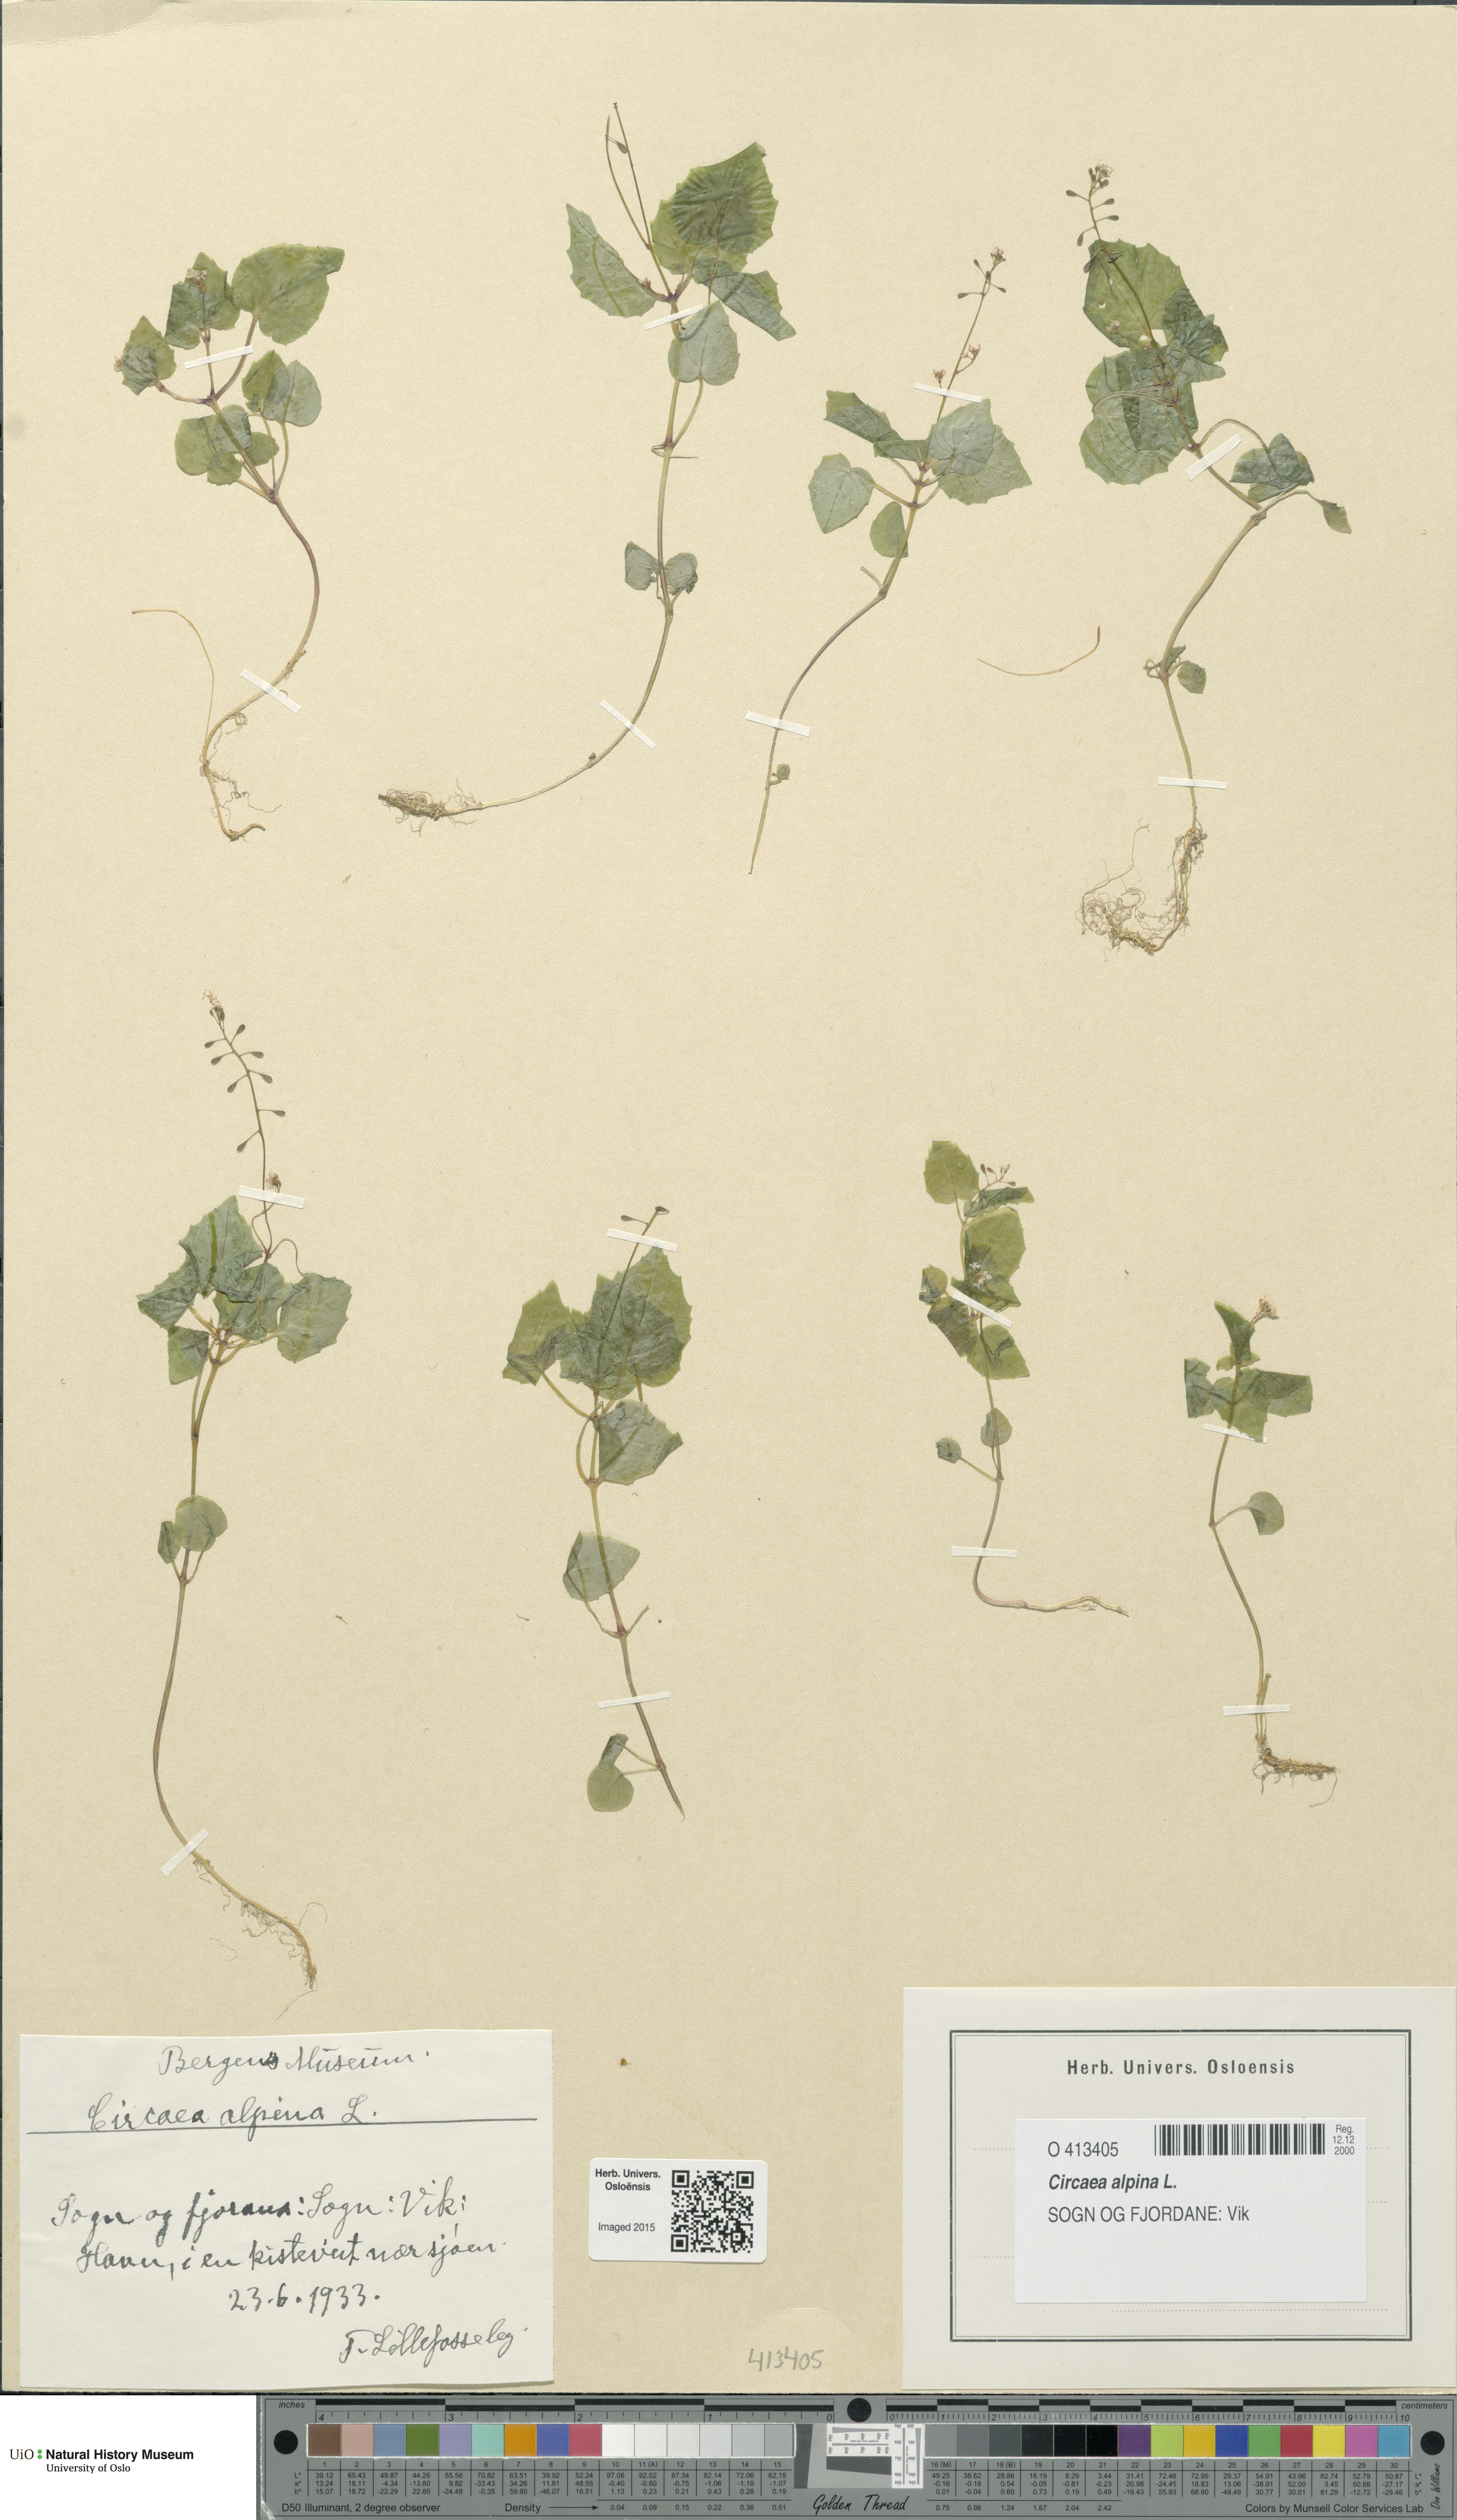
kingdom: Plantae
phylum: Tracheophyta
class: Magnoliopsida
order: Myrtales
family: Onagraceae
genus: Circaea
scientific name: Circaea alpina
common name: Alpine enchanter's-nightshade
